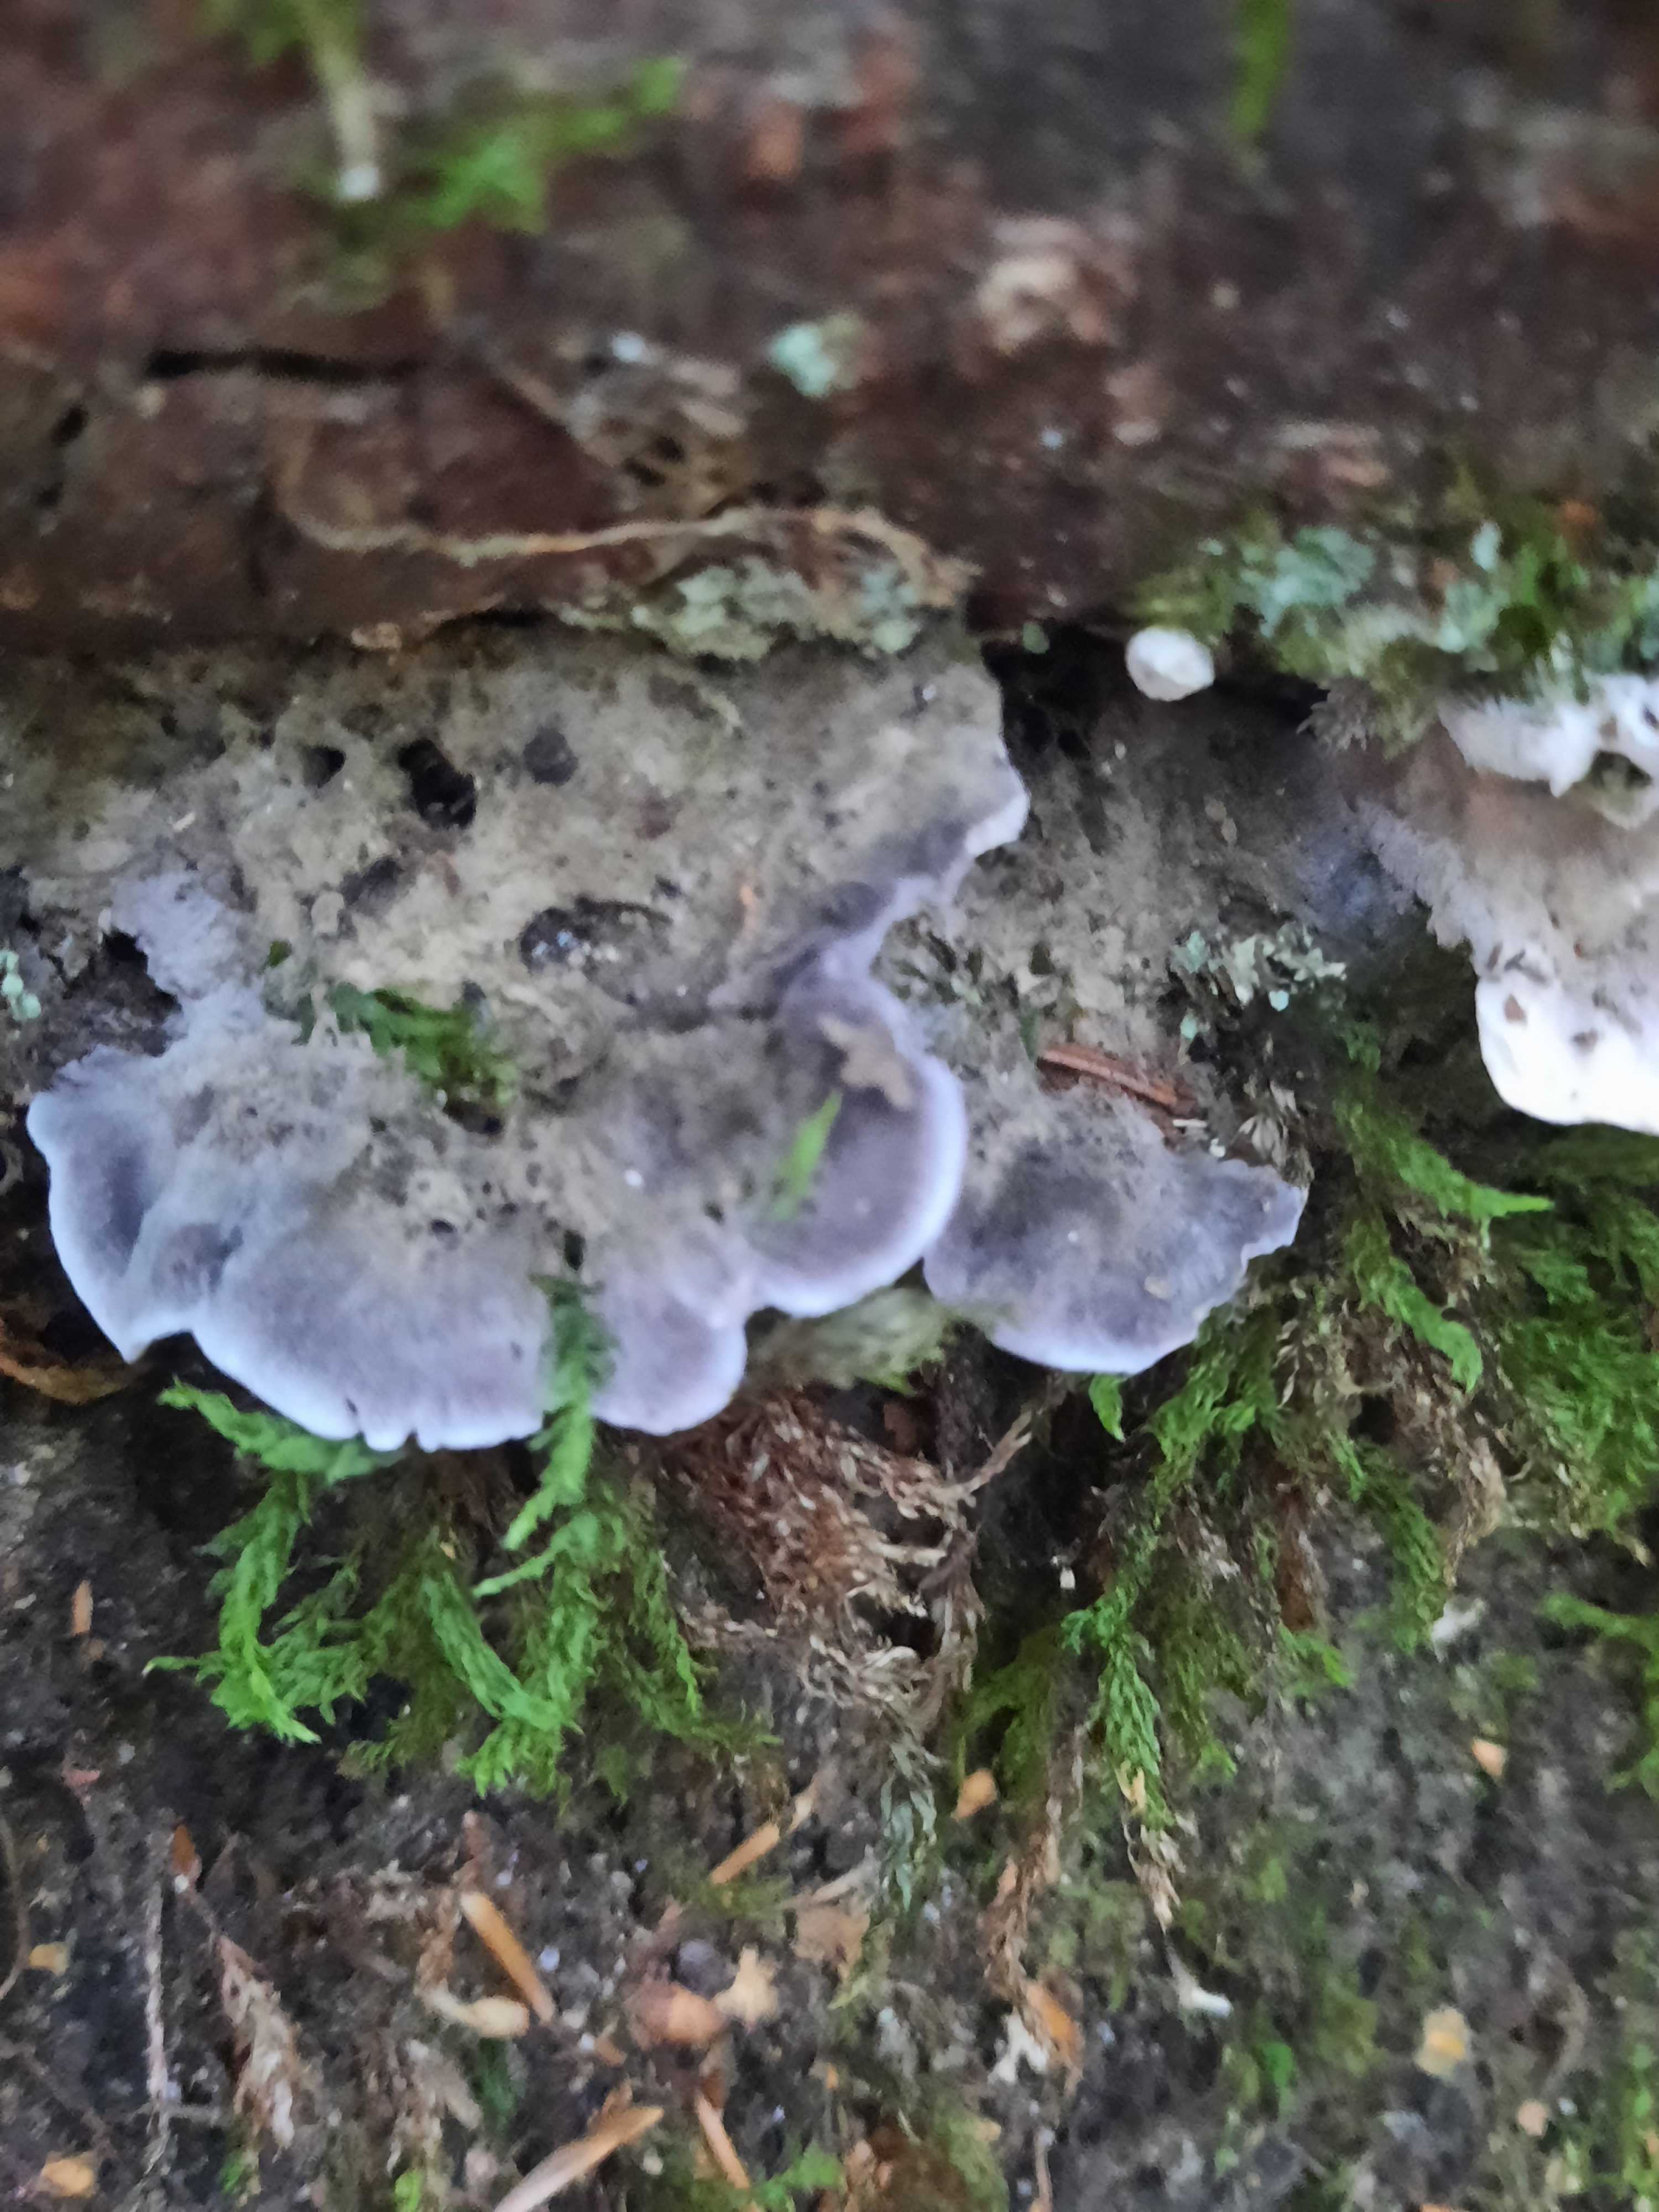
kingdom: Fungi
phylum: Basidiomycota
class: Agaricomycetes
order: Thelephorales
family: Thelephoraceae
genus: Phellodon
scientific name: Phellodon
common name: mørk duftpigsvamp
